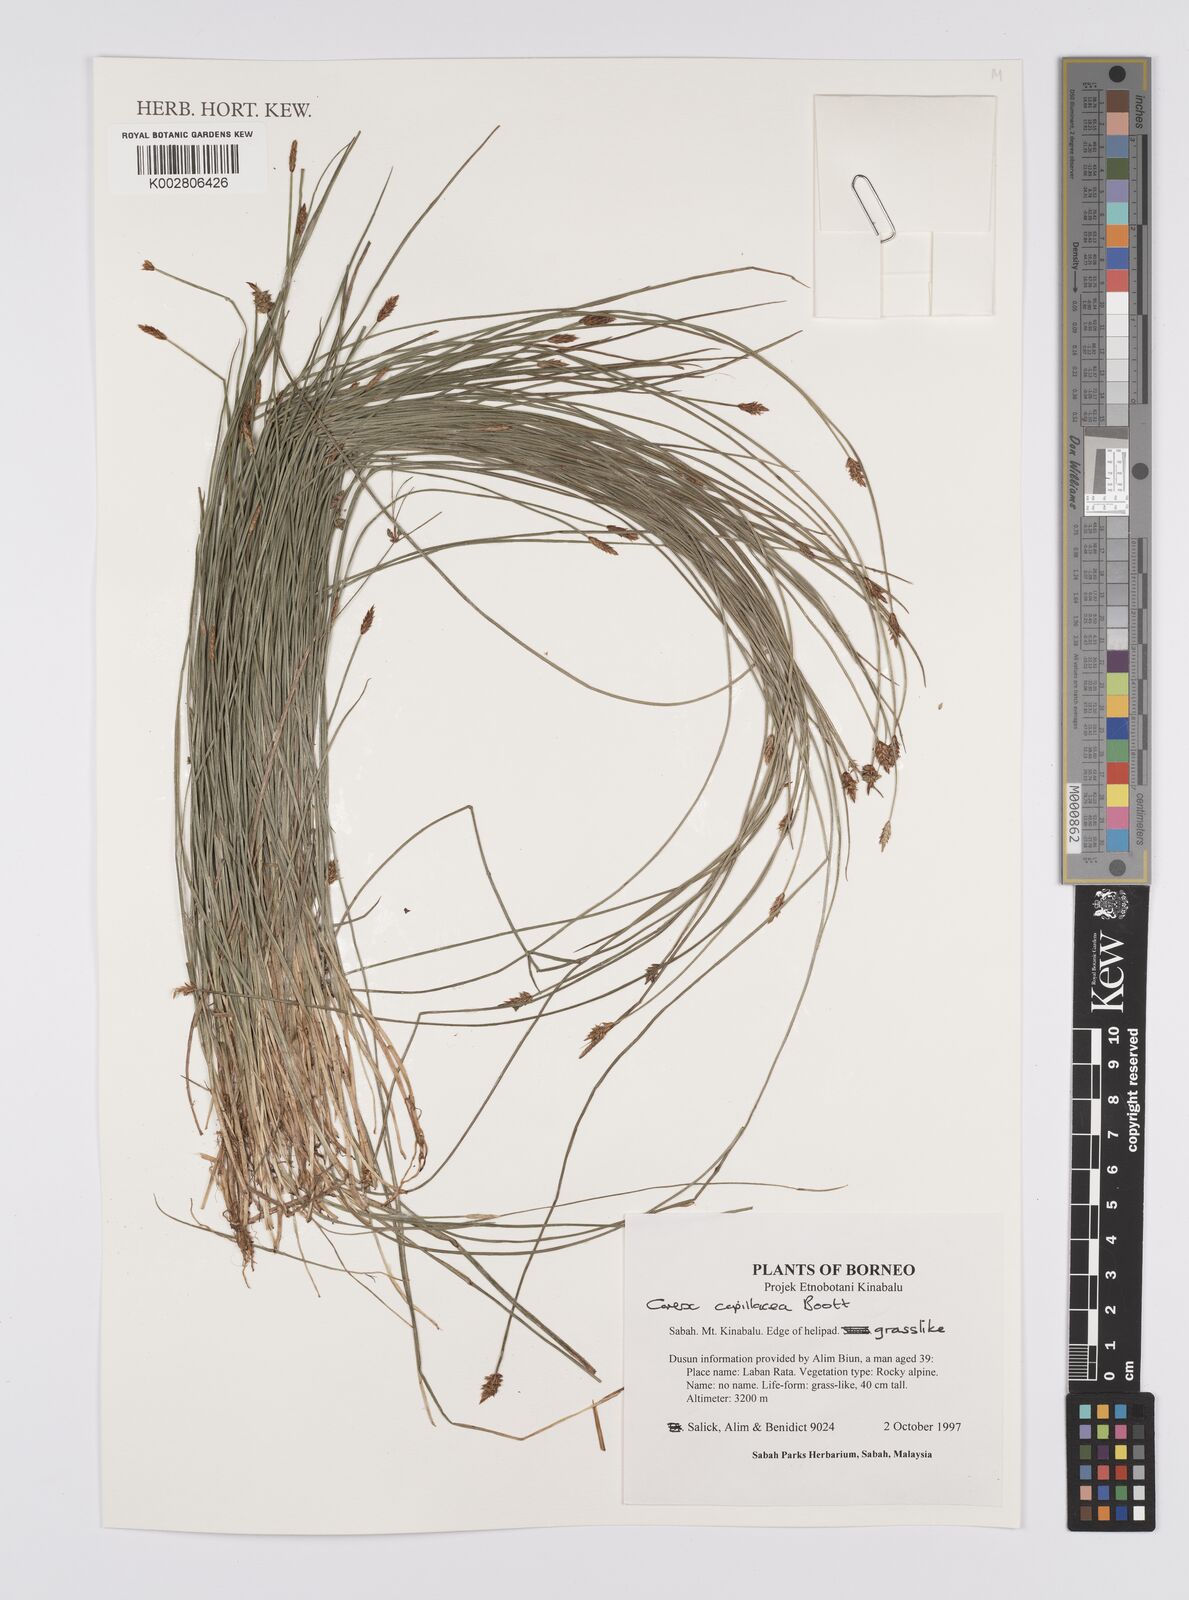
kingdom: Plantae
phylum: Tracheophyta
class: Liliopsida
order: Poales
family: Cyperaceae
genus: Carex
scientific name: Carex capillacea
